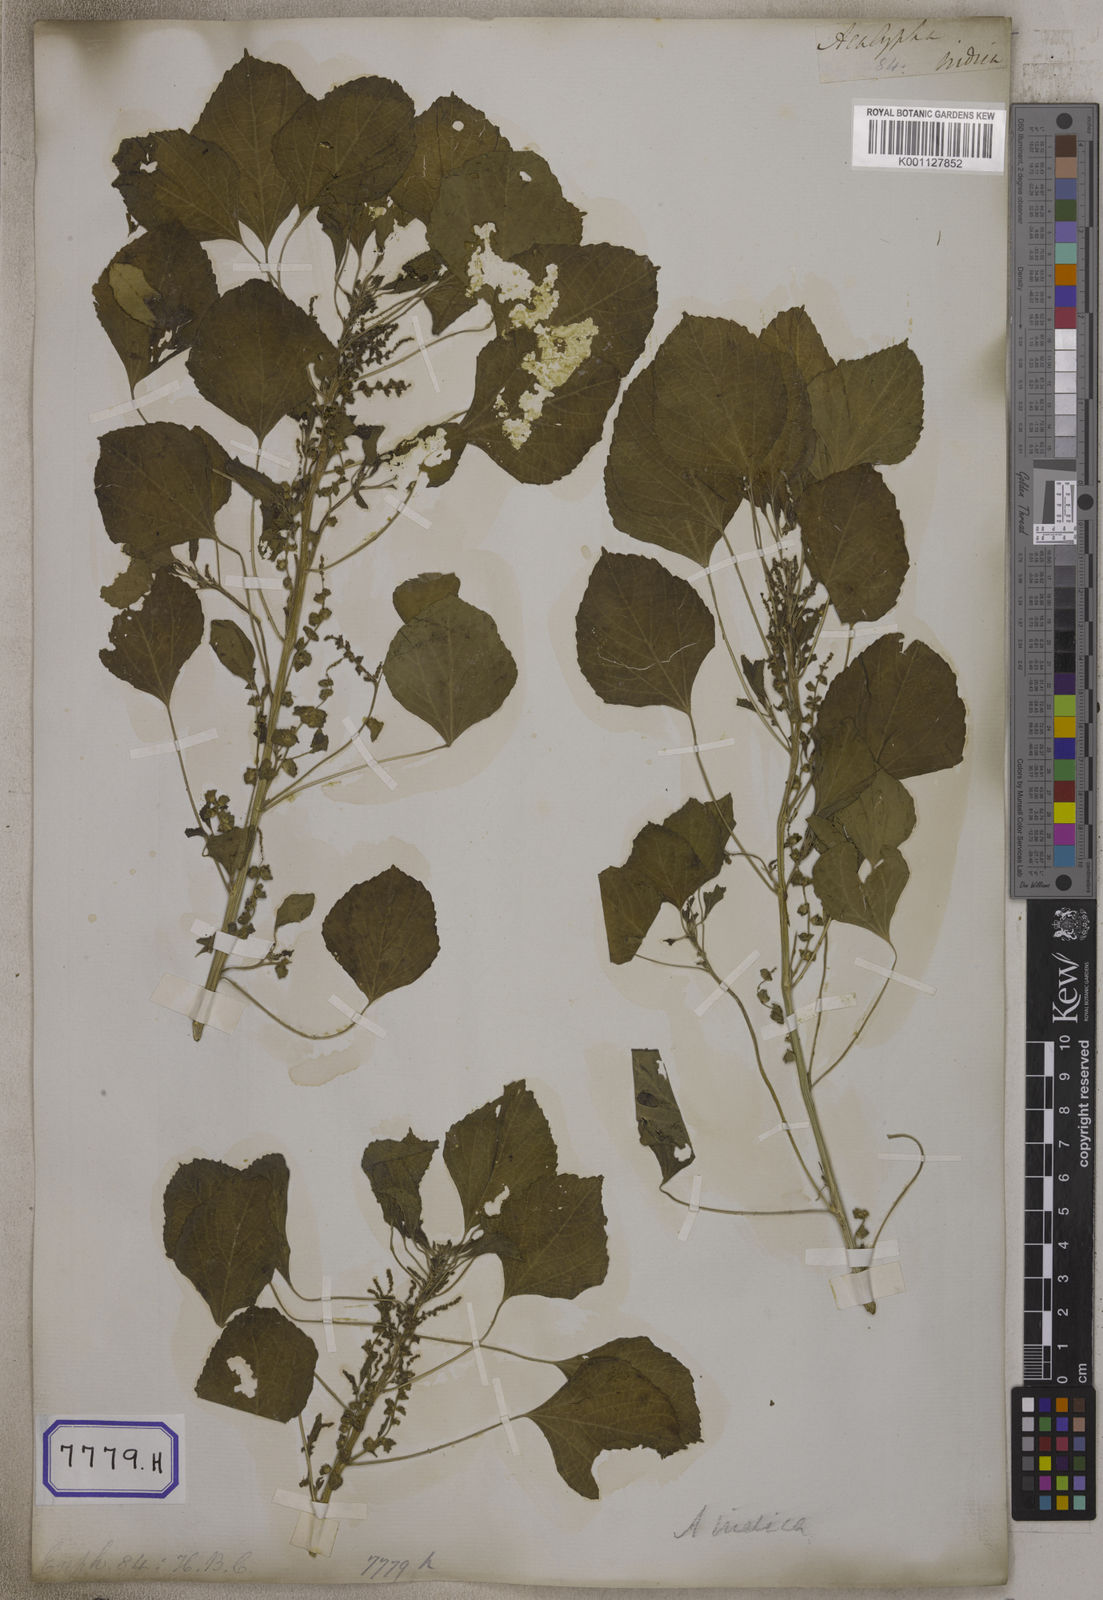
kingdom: Plantae
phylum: Tracheophyta
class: Magnoliopsida
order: Malpighiales
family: Euphorbiaceae
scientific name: Euphorbiaceae
